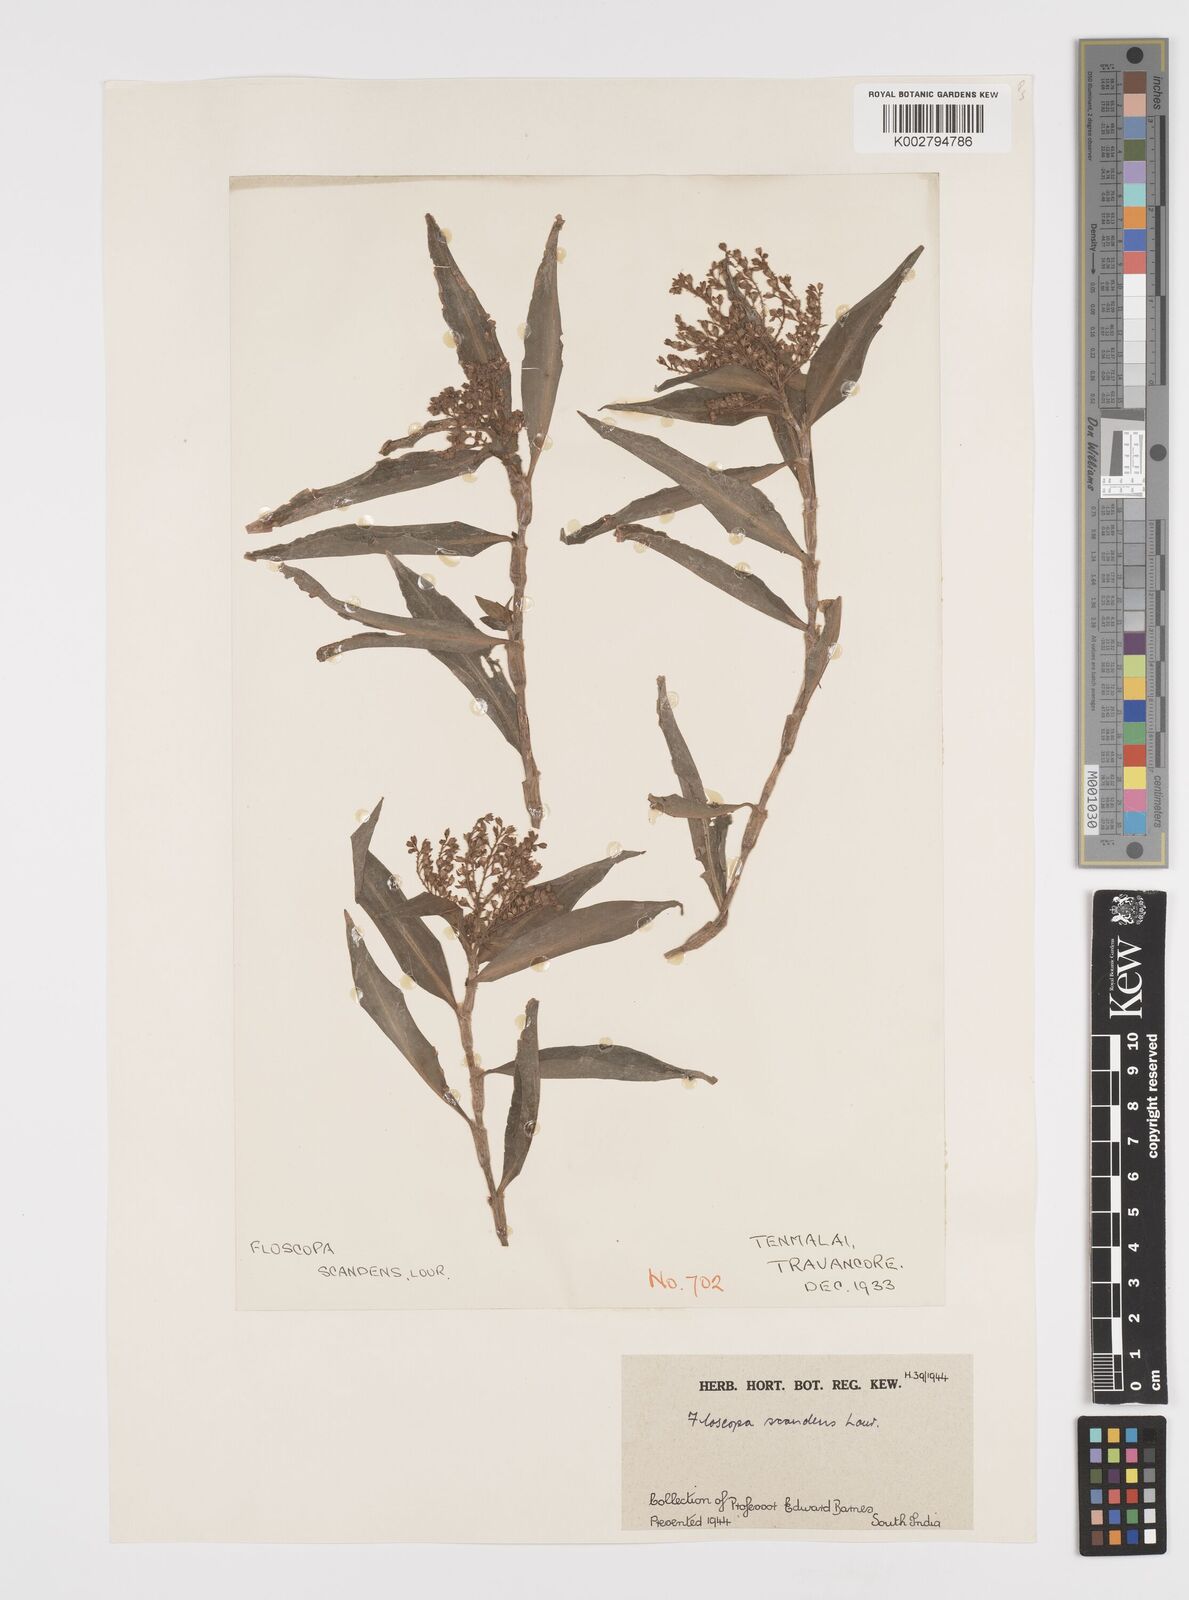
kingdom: Plantae
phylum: Tracheophyta
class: Liliopsida
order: Commelinales
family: Commelinaceae
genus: Floscopa
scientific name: Floscopa scandens
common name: Climbing flower cup
